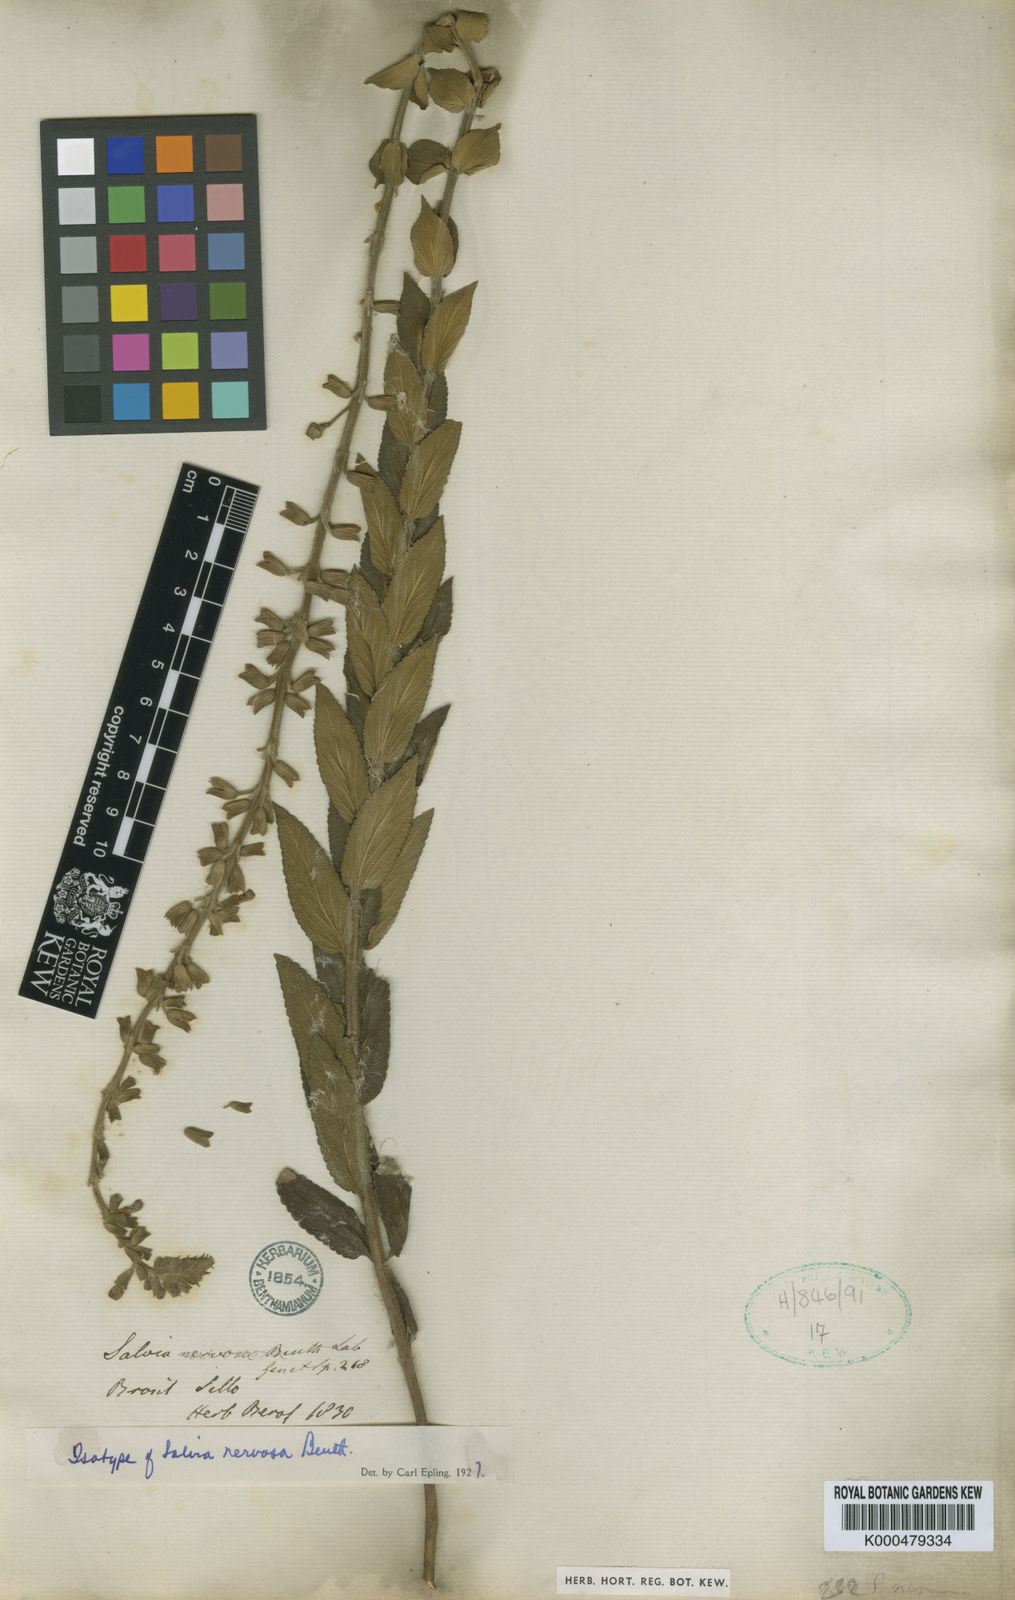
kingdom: Plantae
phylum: Tracheophyta
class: Magnoliopsida
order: Lamiales
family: Lamiaceae
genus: Salvia
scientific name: Salvia nervosa
